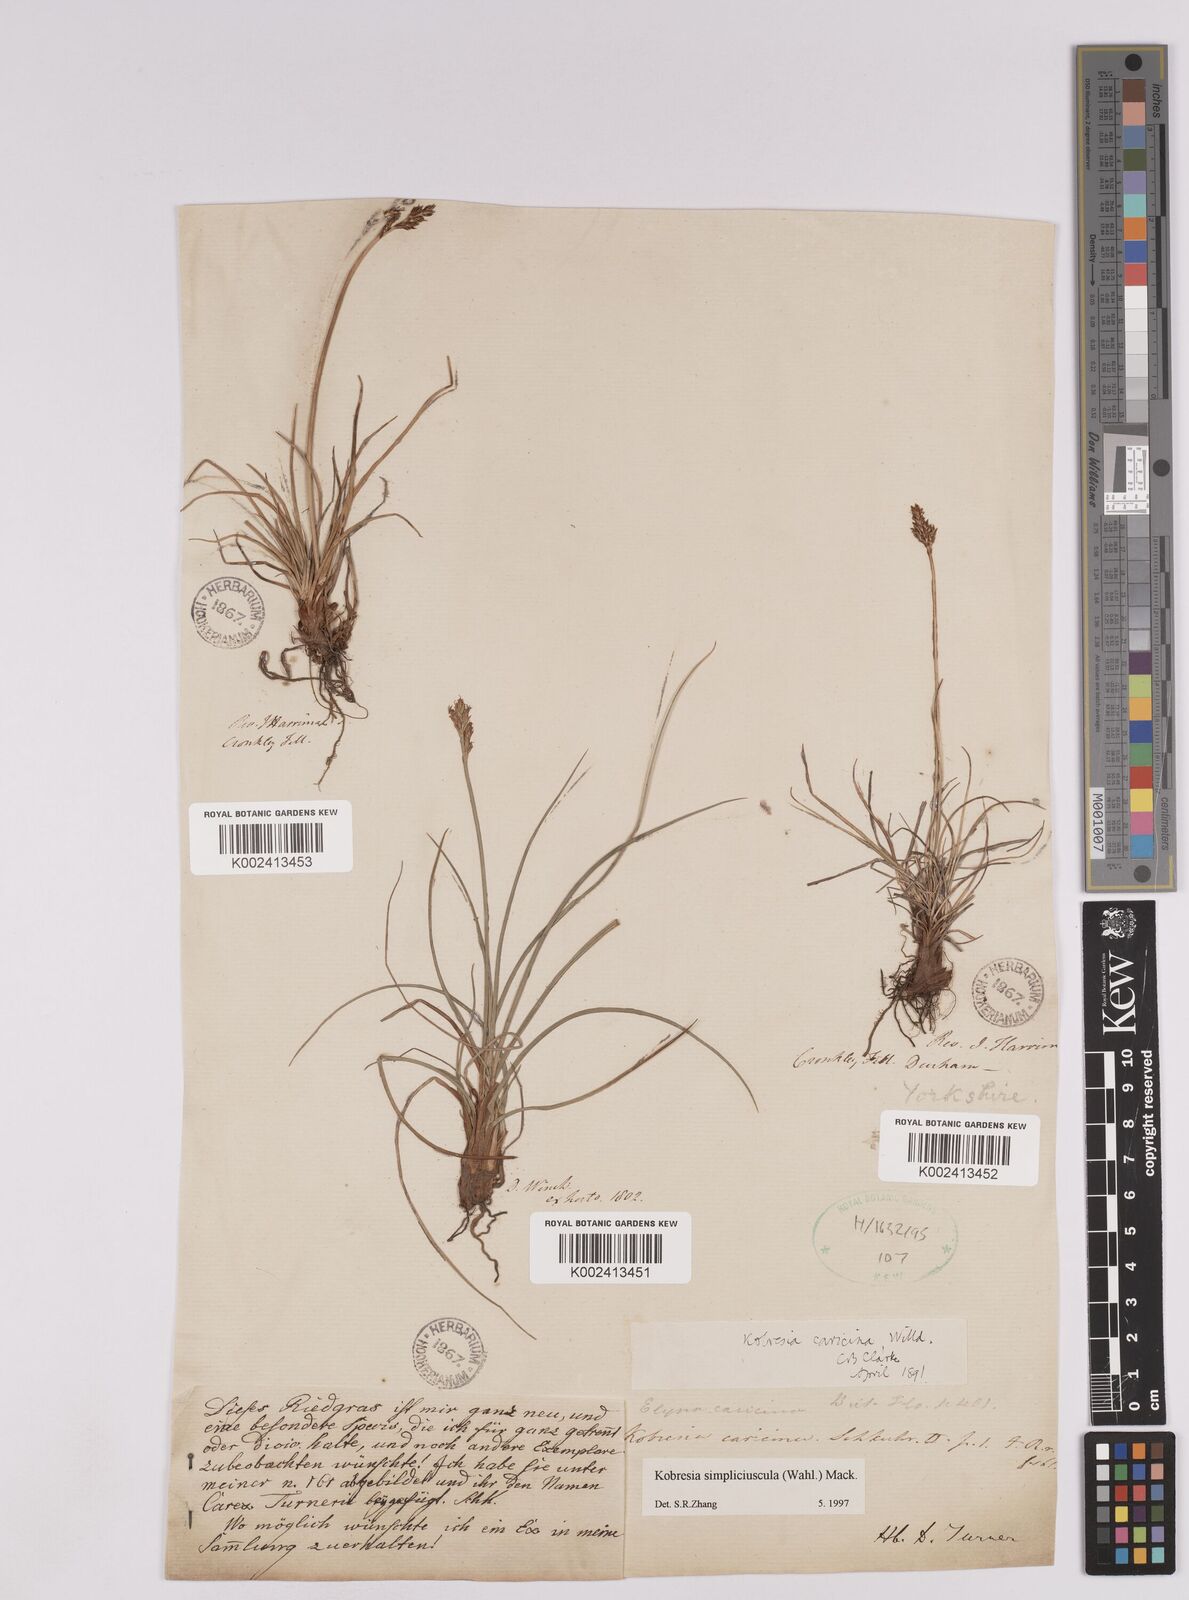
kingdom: Plantae
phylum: Tracheophyta
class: Liliopsida
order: Poales
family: Cyperaceae
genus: Carex
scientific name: Carex simpliciuscula
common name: Simple bog sedge
